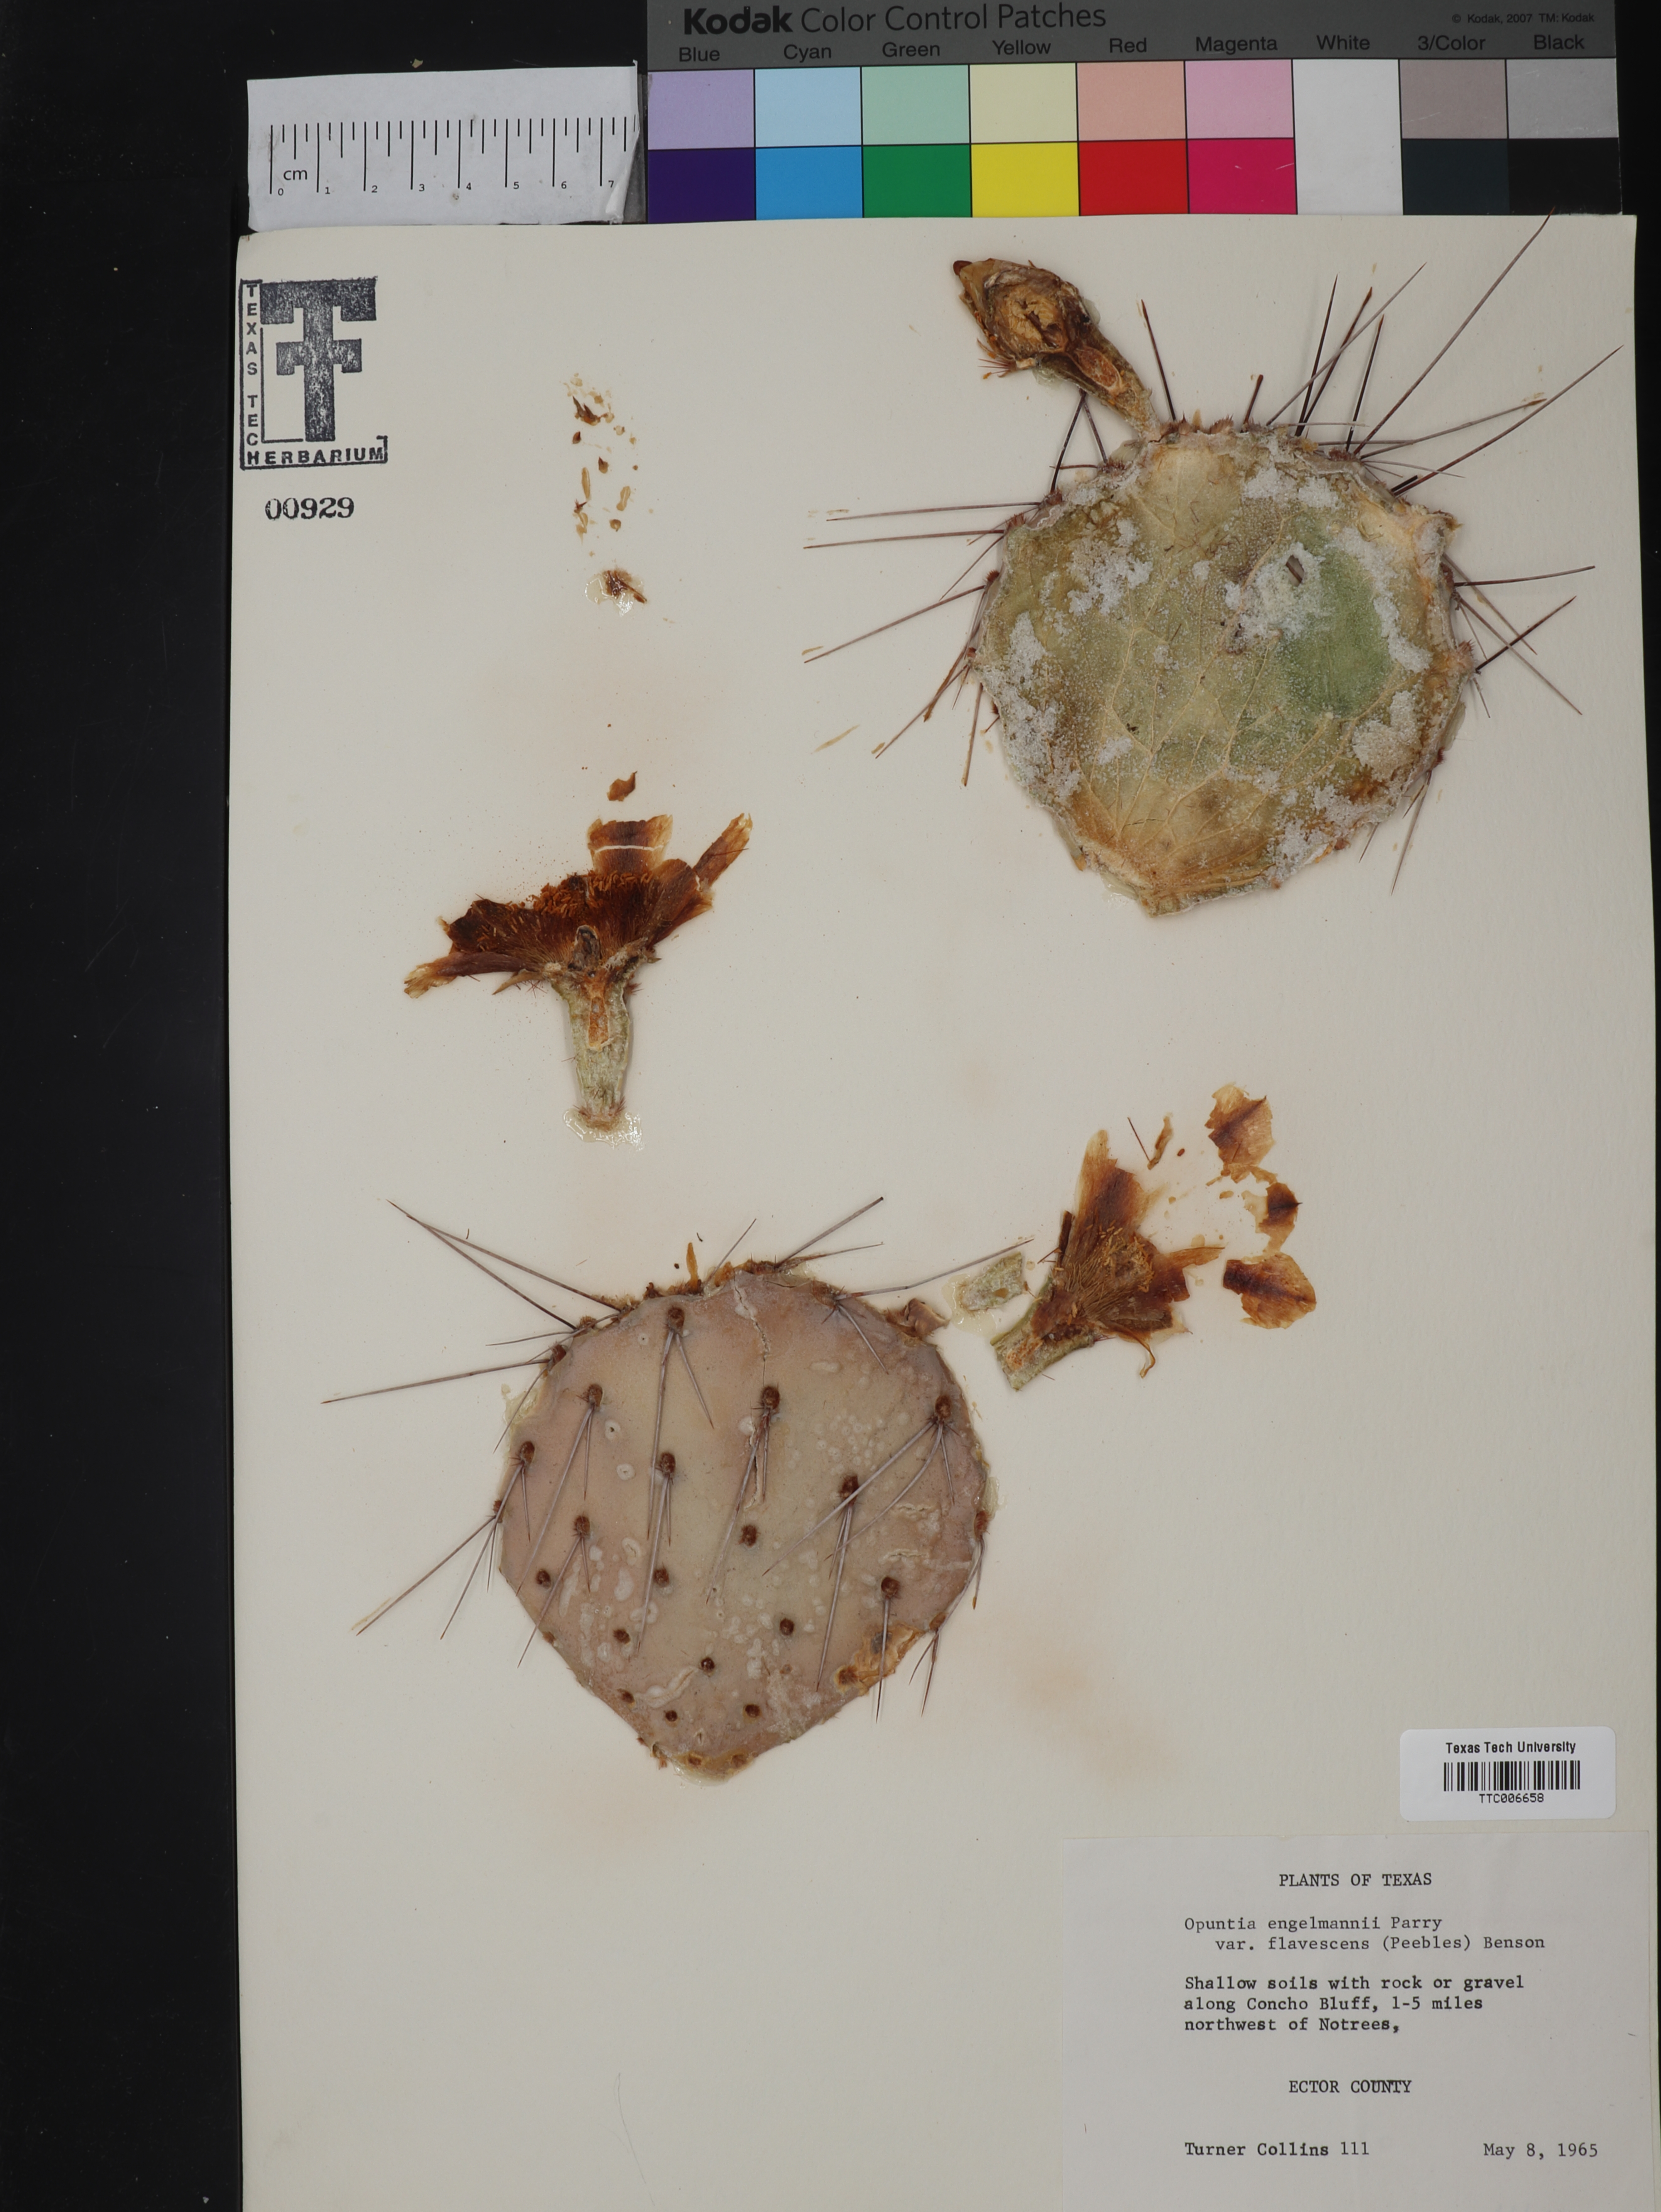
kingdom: Plantae
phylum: Tracheophyta
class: Magnoliopsida
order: Caryophyllales
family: Cactaceae
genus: Opuntia
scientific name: Opuntia engelmannii
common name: Cactus-apple
